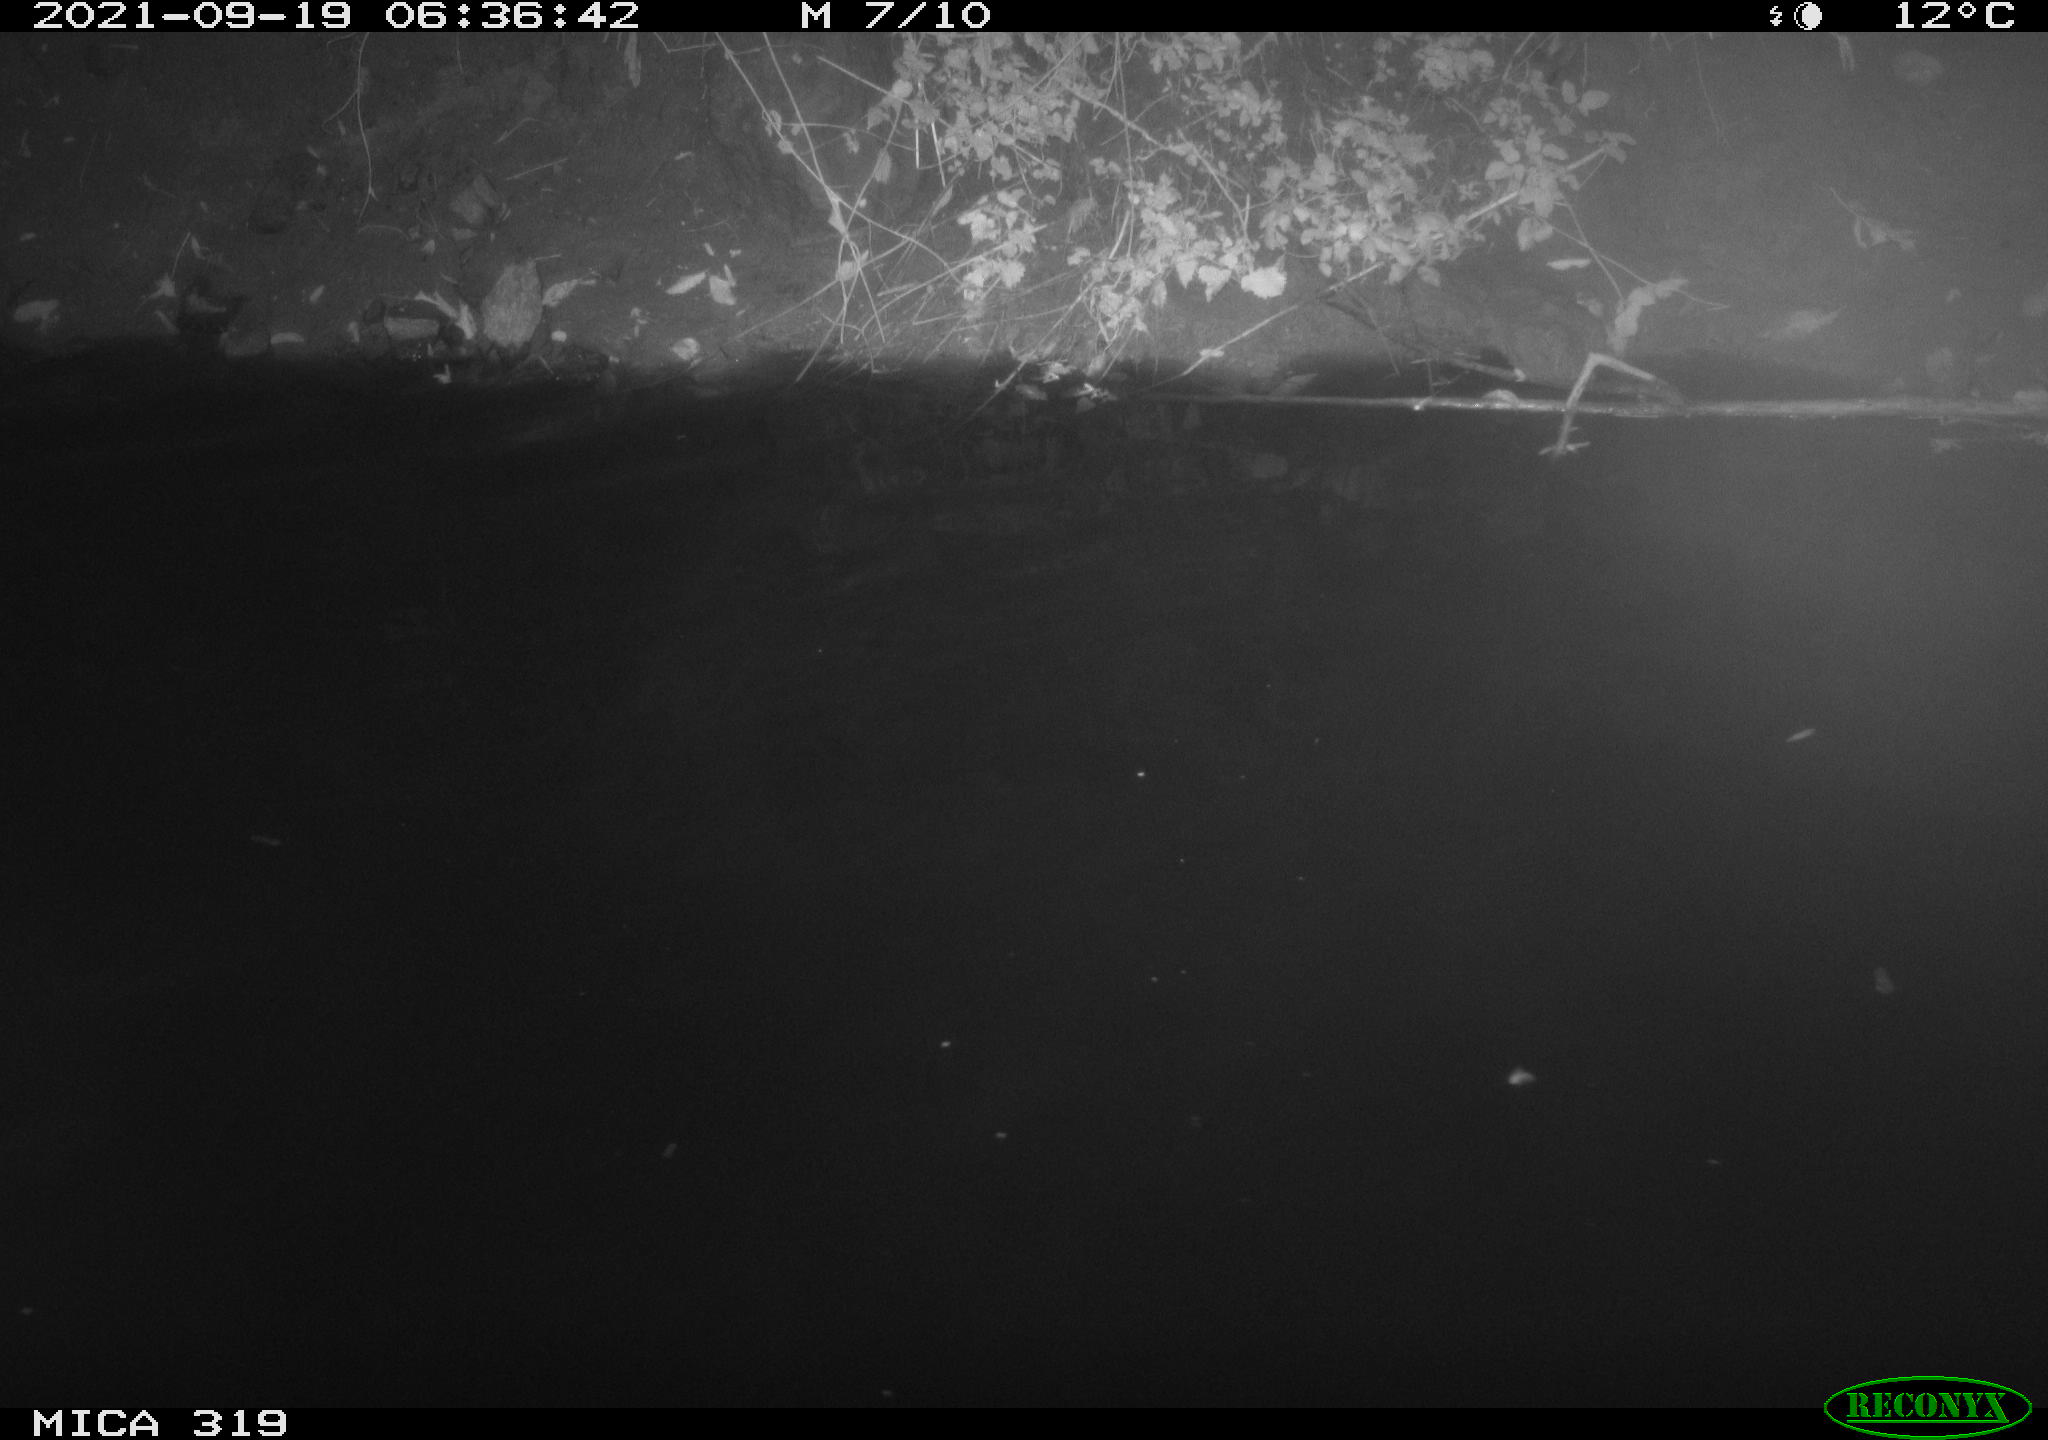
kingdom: Animalia
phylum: Chordata
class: Aves
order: Anseriformes
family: Anatidae
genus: Anas
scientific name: Anas platyrhynchos
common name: Mallard
